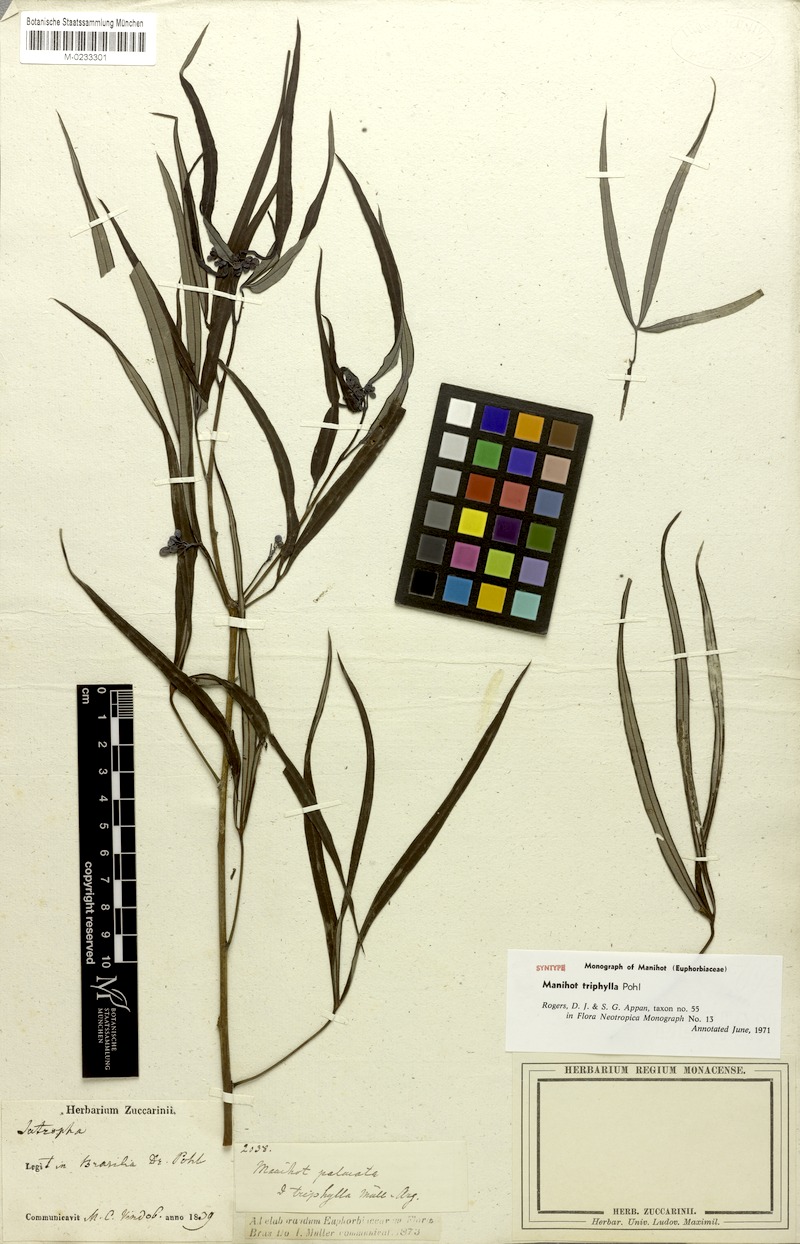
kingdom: Plantae
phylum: Tracheophyta
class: Magnoliopsida
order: Malpighiales
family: Euphorbiaceae
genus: Manihot
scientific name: Manihot triphylla
